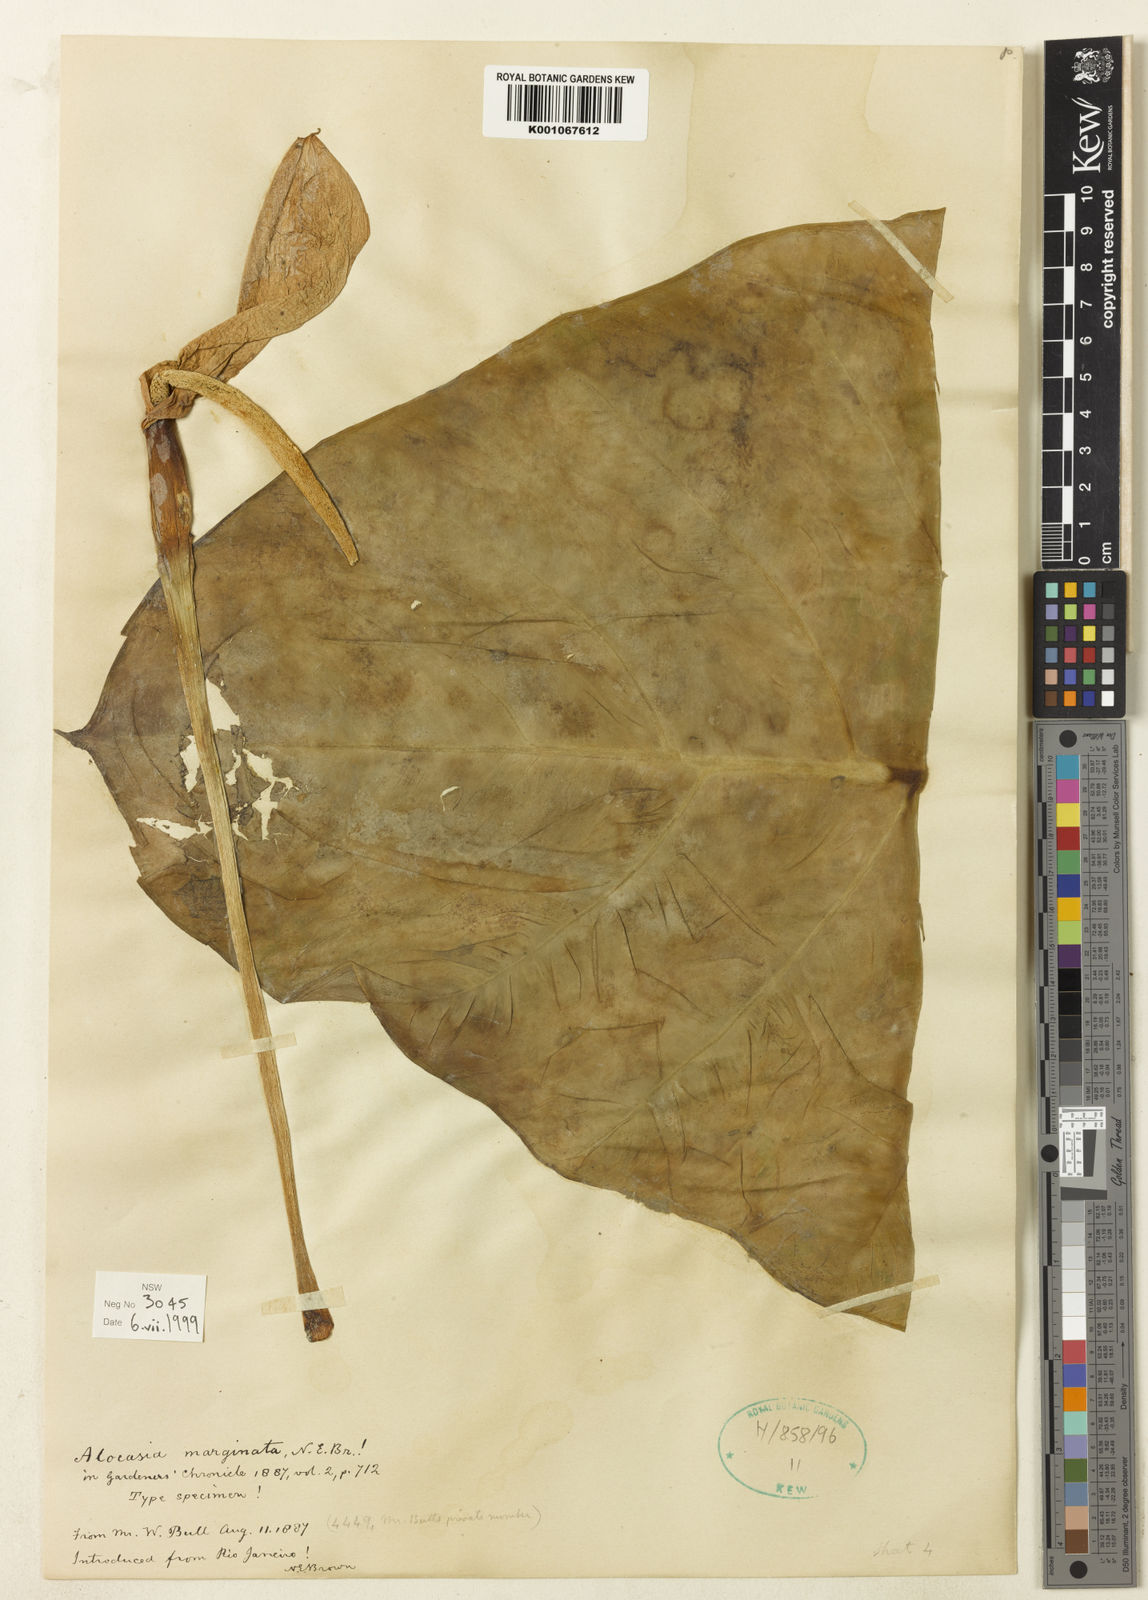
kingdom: Plantae
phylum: Tracheophyta
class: Liliopsida
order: Alismatales
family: Araceae
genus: Alocasia
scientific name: Alocasia macrorrhizos
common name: Giant taro
